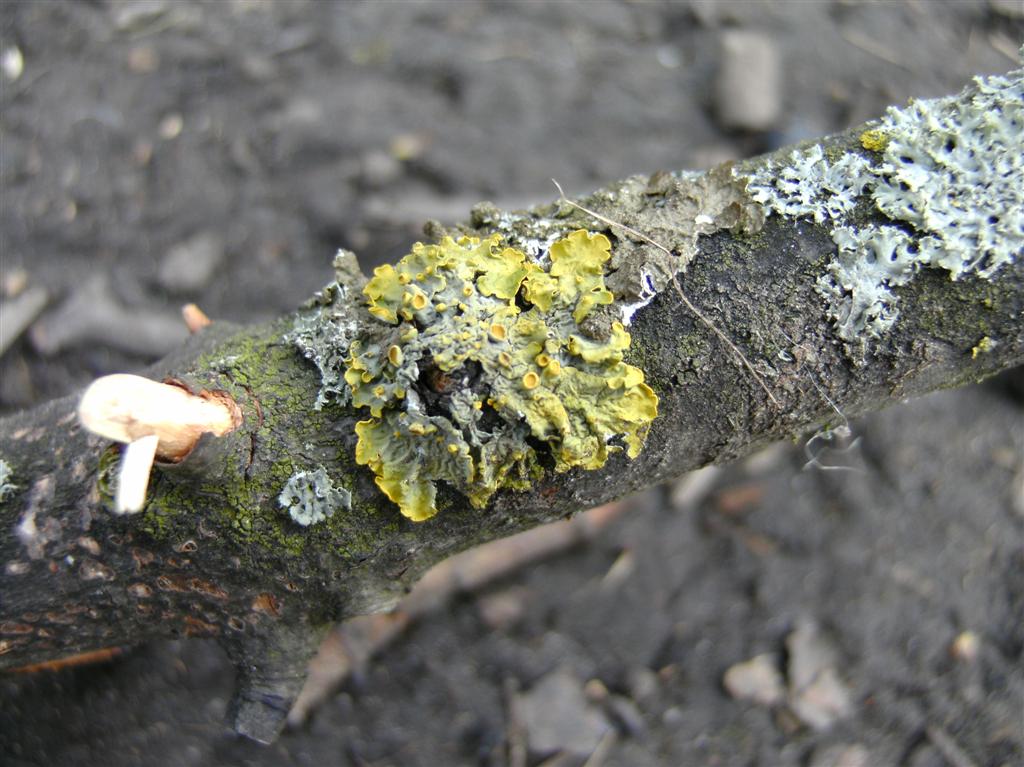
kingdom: Fungi
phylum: Ascomycota
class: Lecanoromycetes
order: Teloschistales
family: Teloschistaceae
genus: Xanthoria
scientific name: Xanthoria parietina
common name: almindelig væggelav
